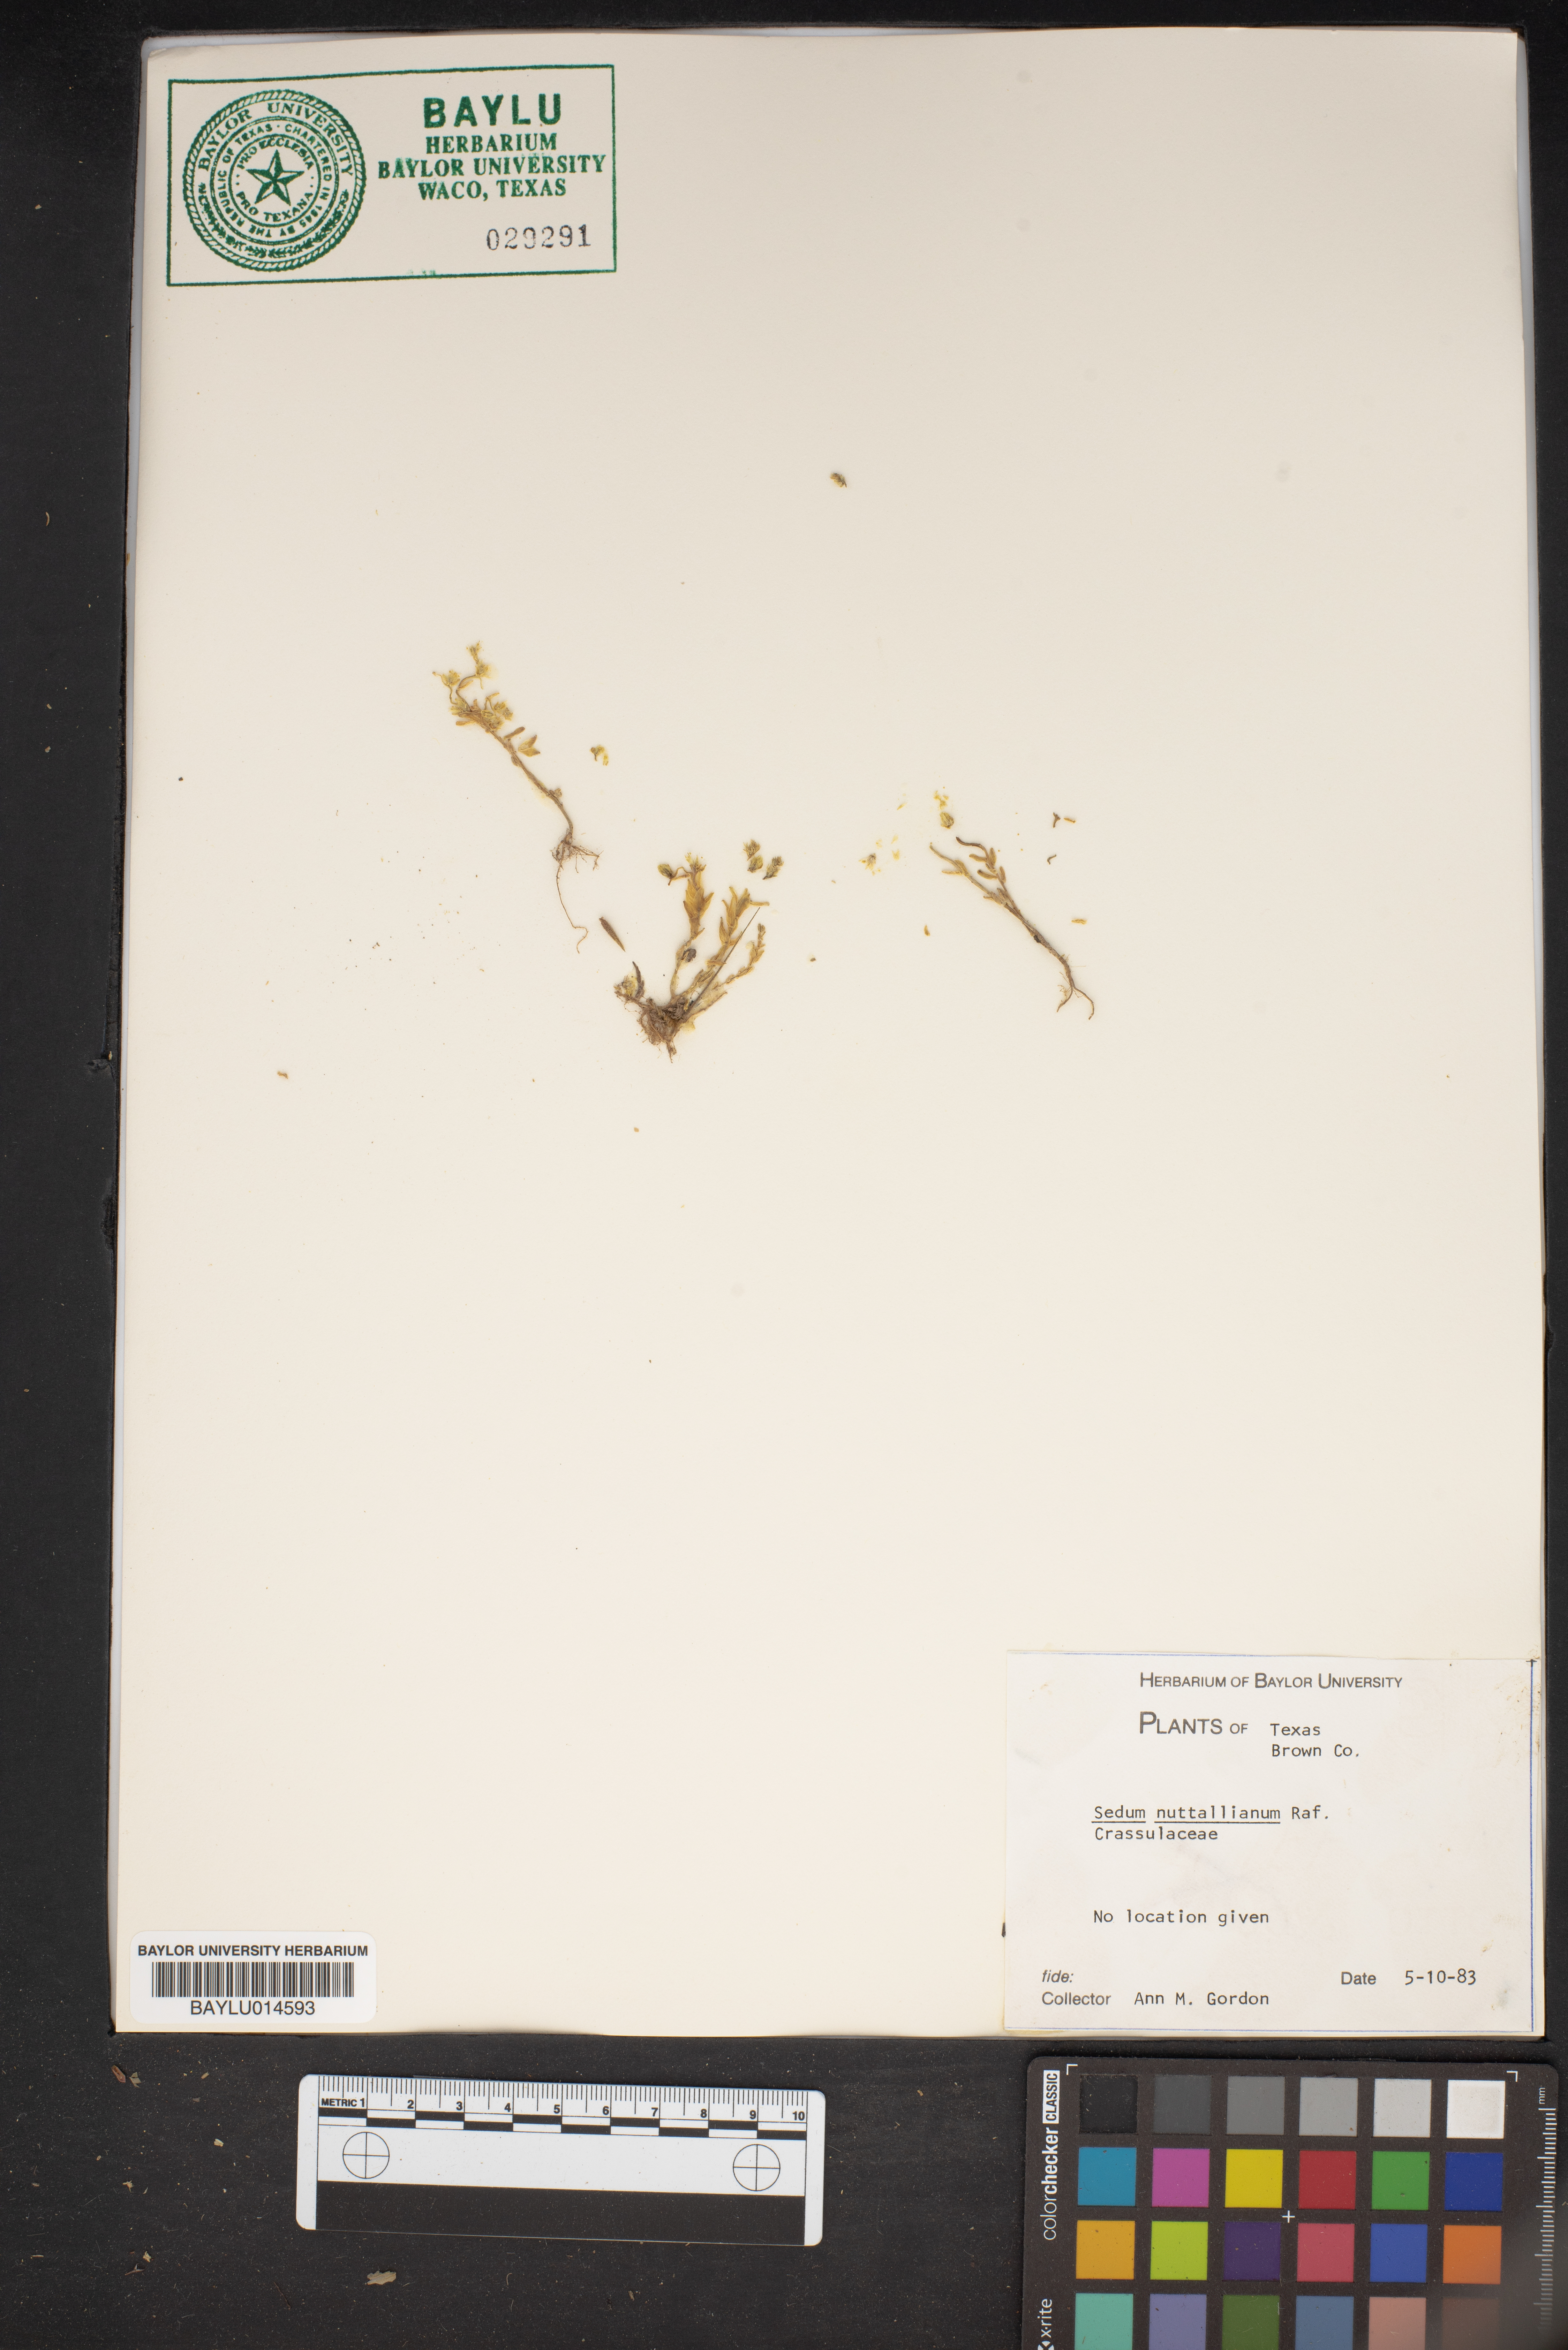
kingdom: Plantae
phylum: Tracheophyta
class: Magnoliopsida
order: Saxifragales
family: Crassulaceae
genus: Sedum
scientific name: Sedum nuttallii
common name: Yellow stonecrop
